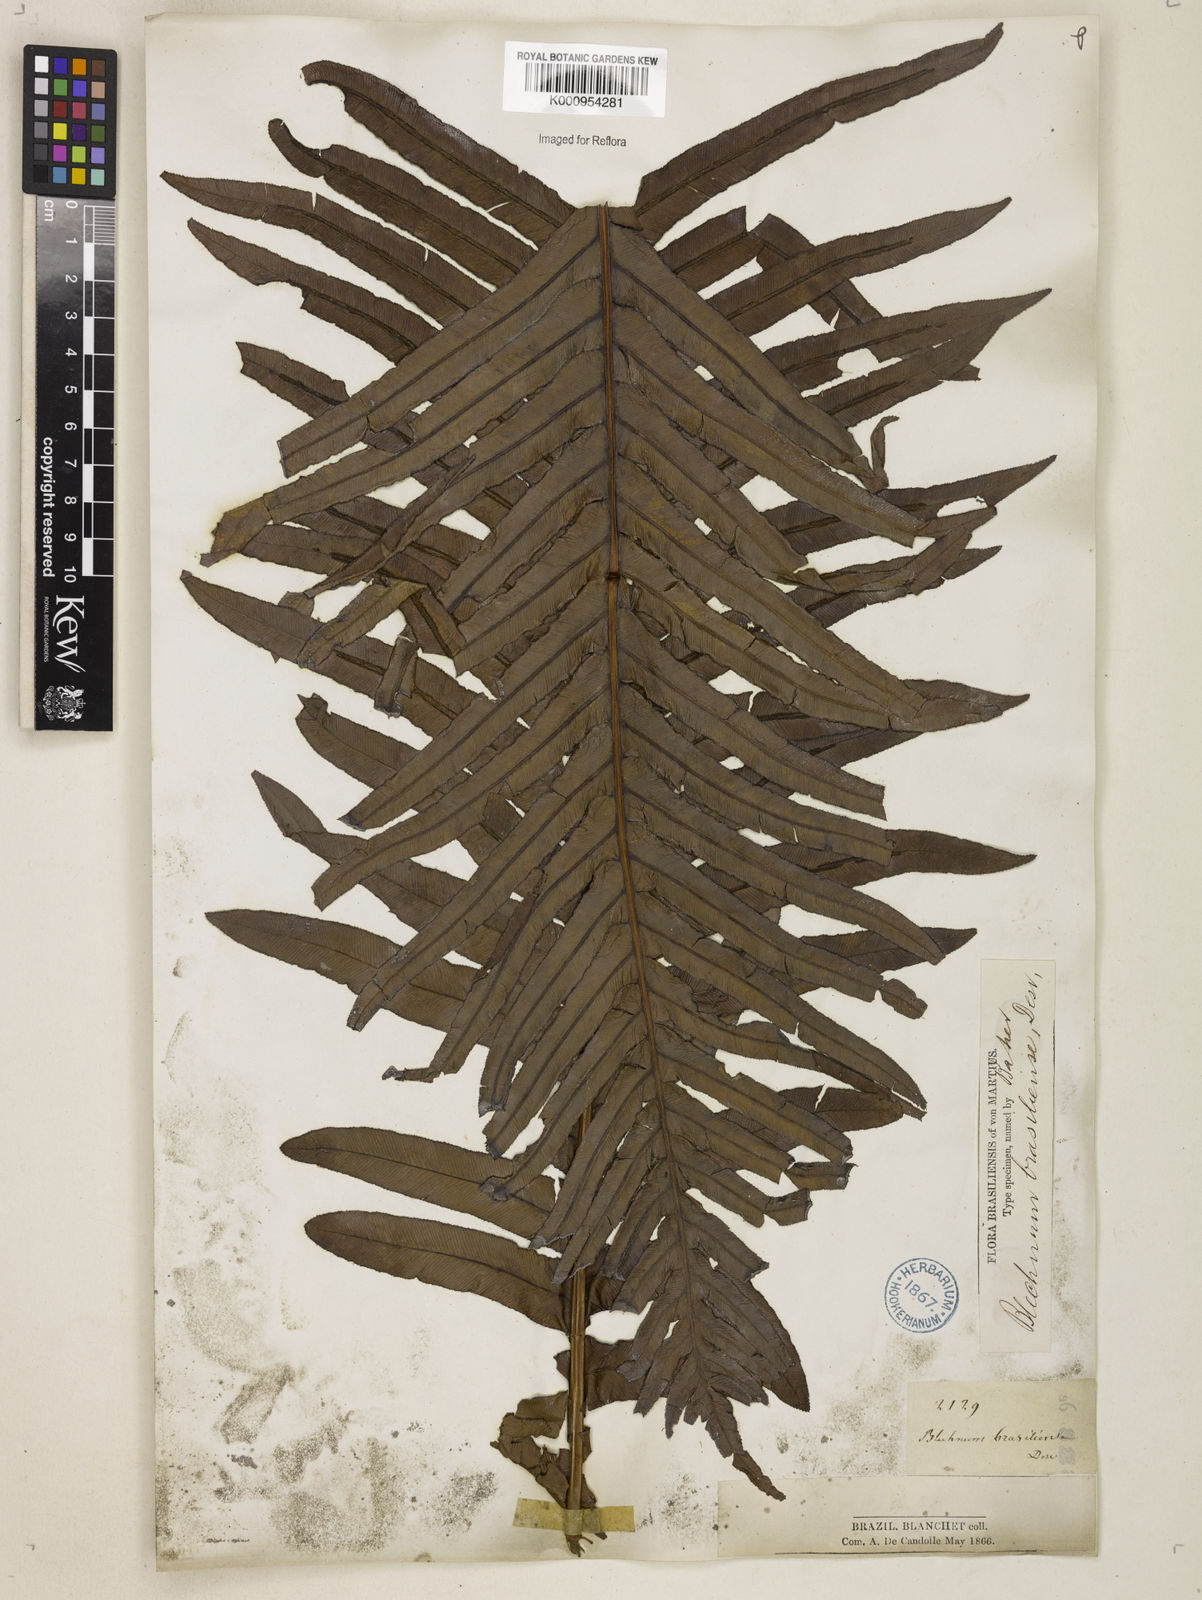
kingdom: Plantae
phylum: Tracheophyta
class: Polypodiopsida
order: Polypodiales
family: Blechnaceae
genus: Neoblechnum
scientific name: Neoblechnum brasiliense
